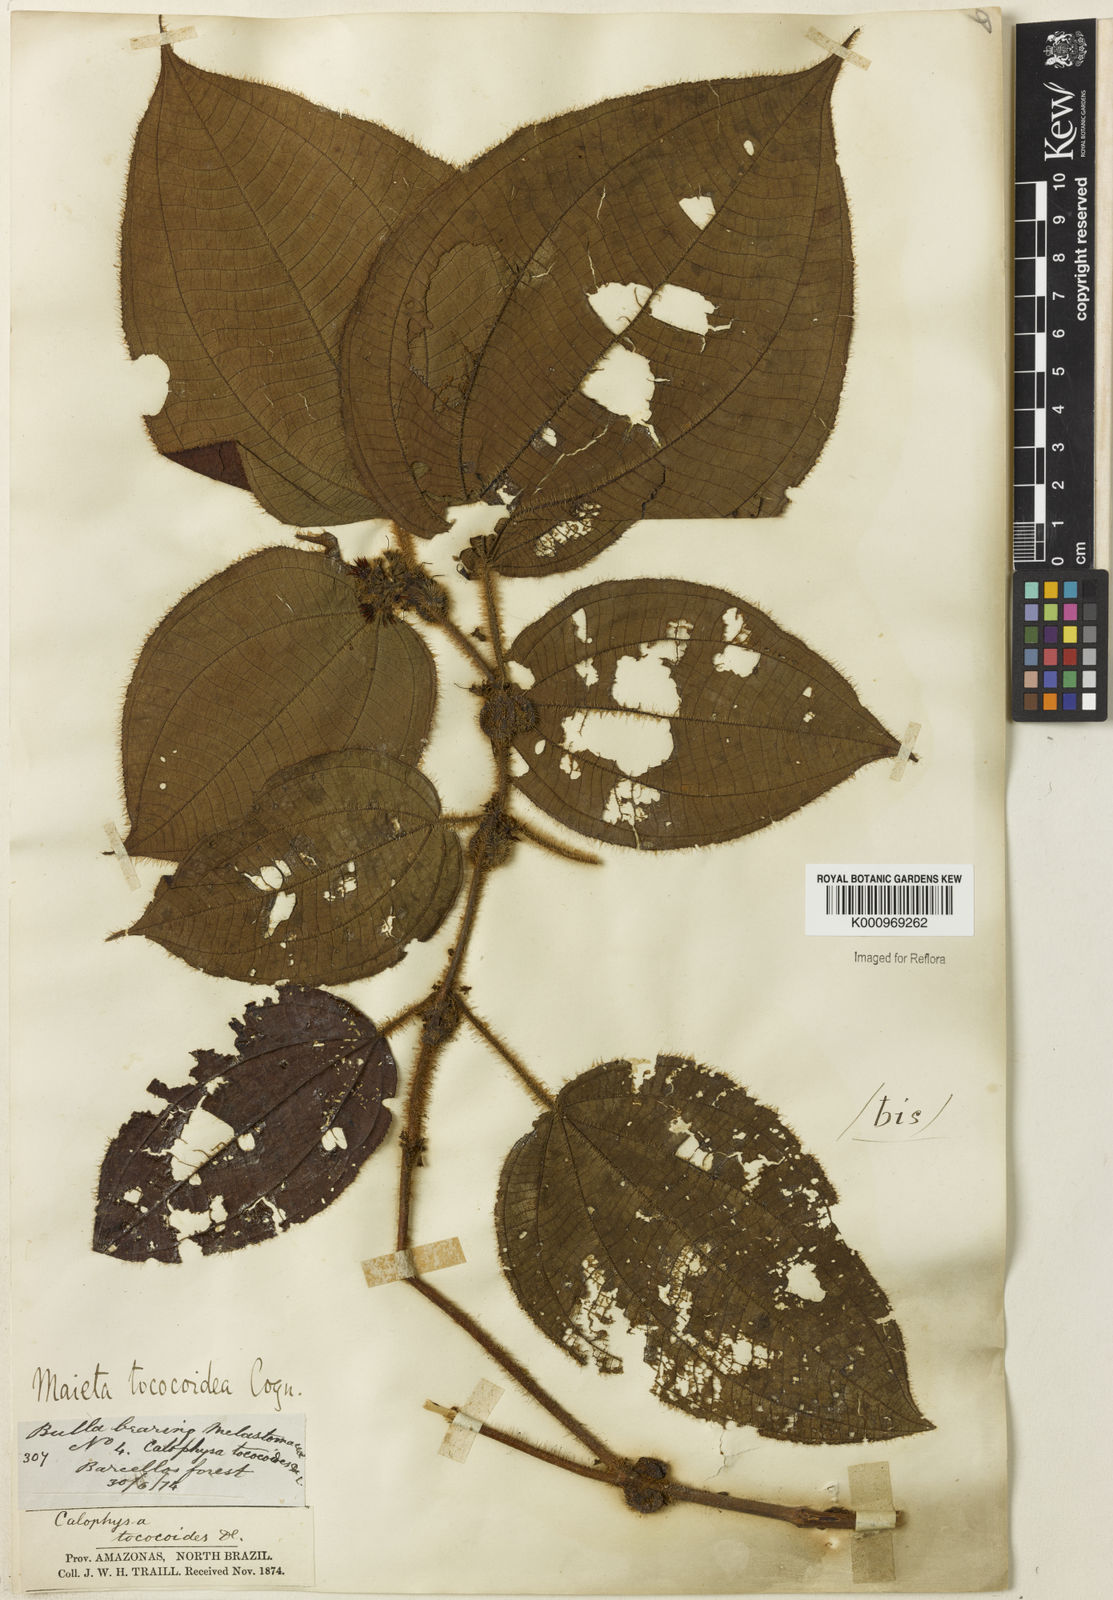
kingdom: Plantae
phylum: Tracheophyta
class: Magnoliopsida
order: Myrtales
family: Melastomataceae
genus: Miconia
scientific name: Miconia tococoidea
